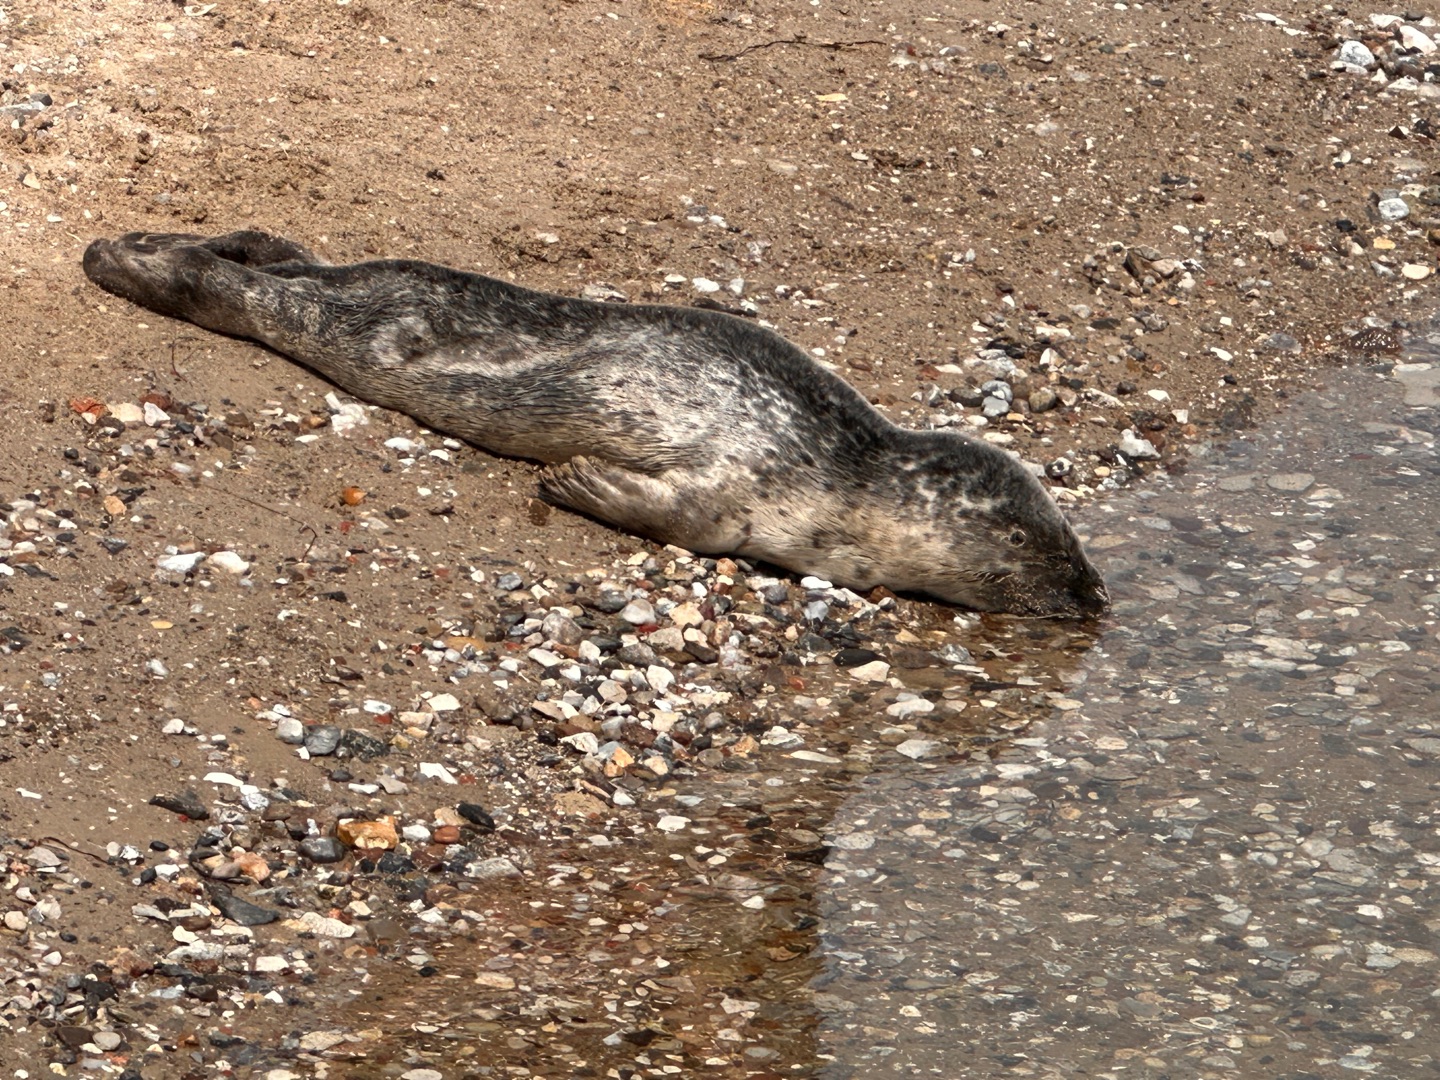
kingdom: Animalia
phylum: Chordata
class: Mammalia
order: Carnivora
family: Phocidae
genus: Phoca
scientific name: Phoca vitulina
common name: Spættet sæl
